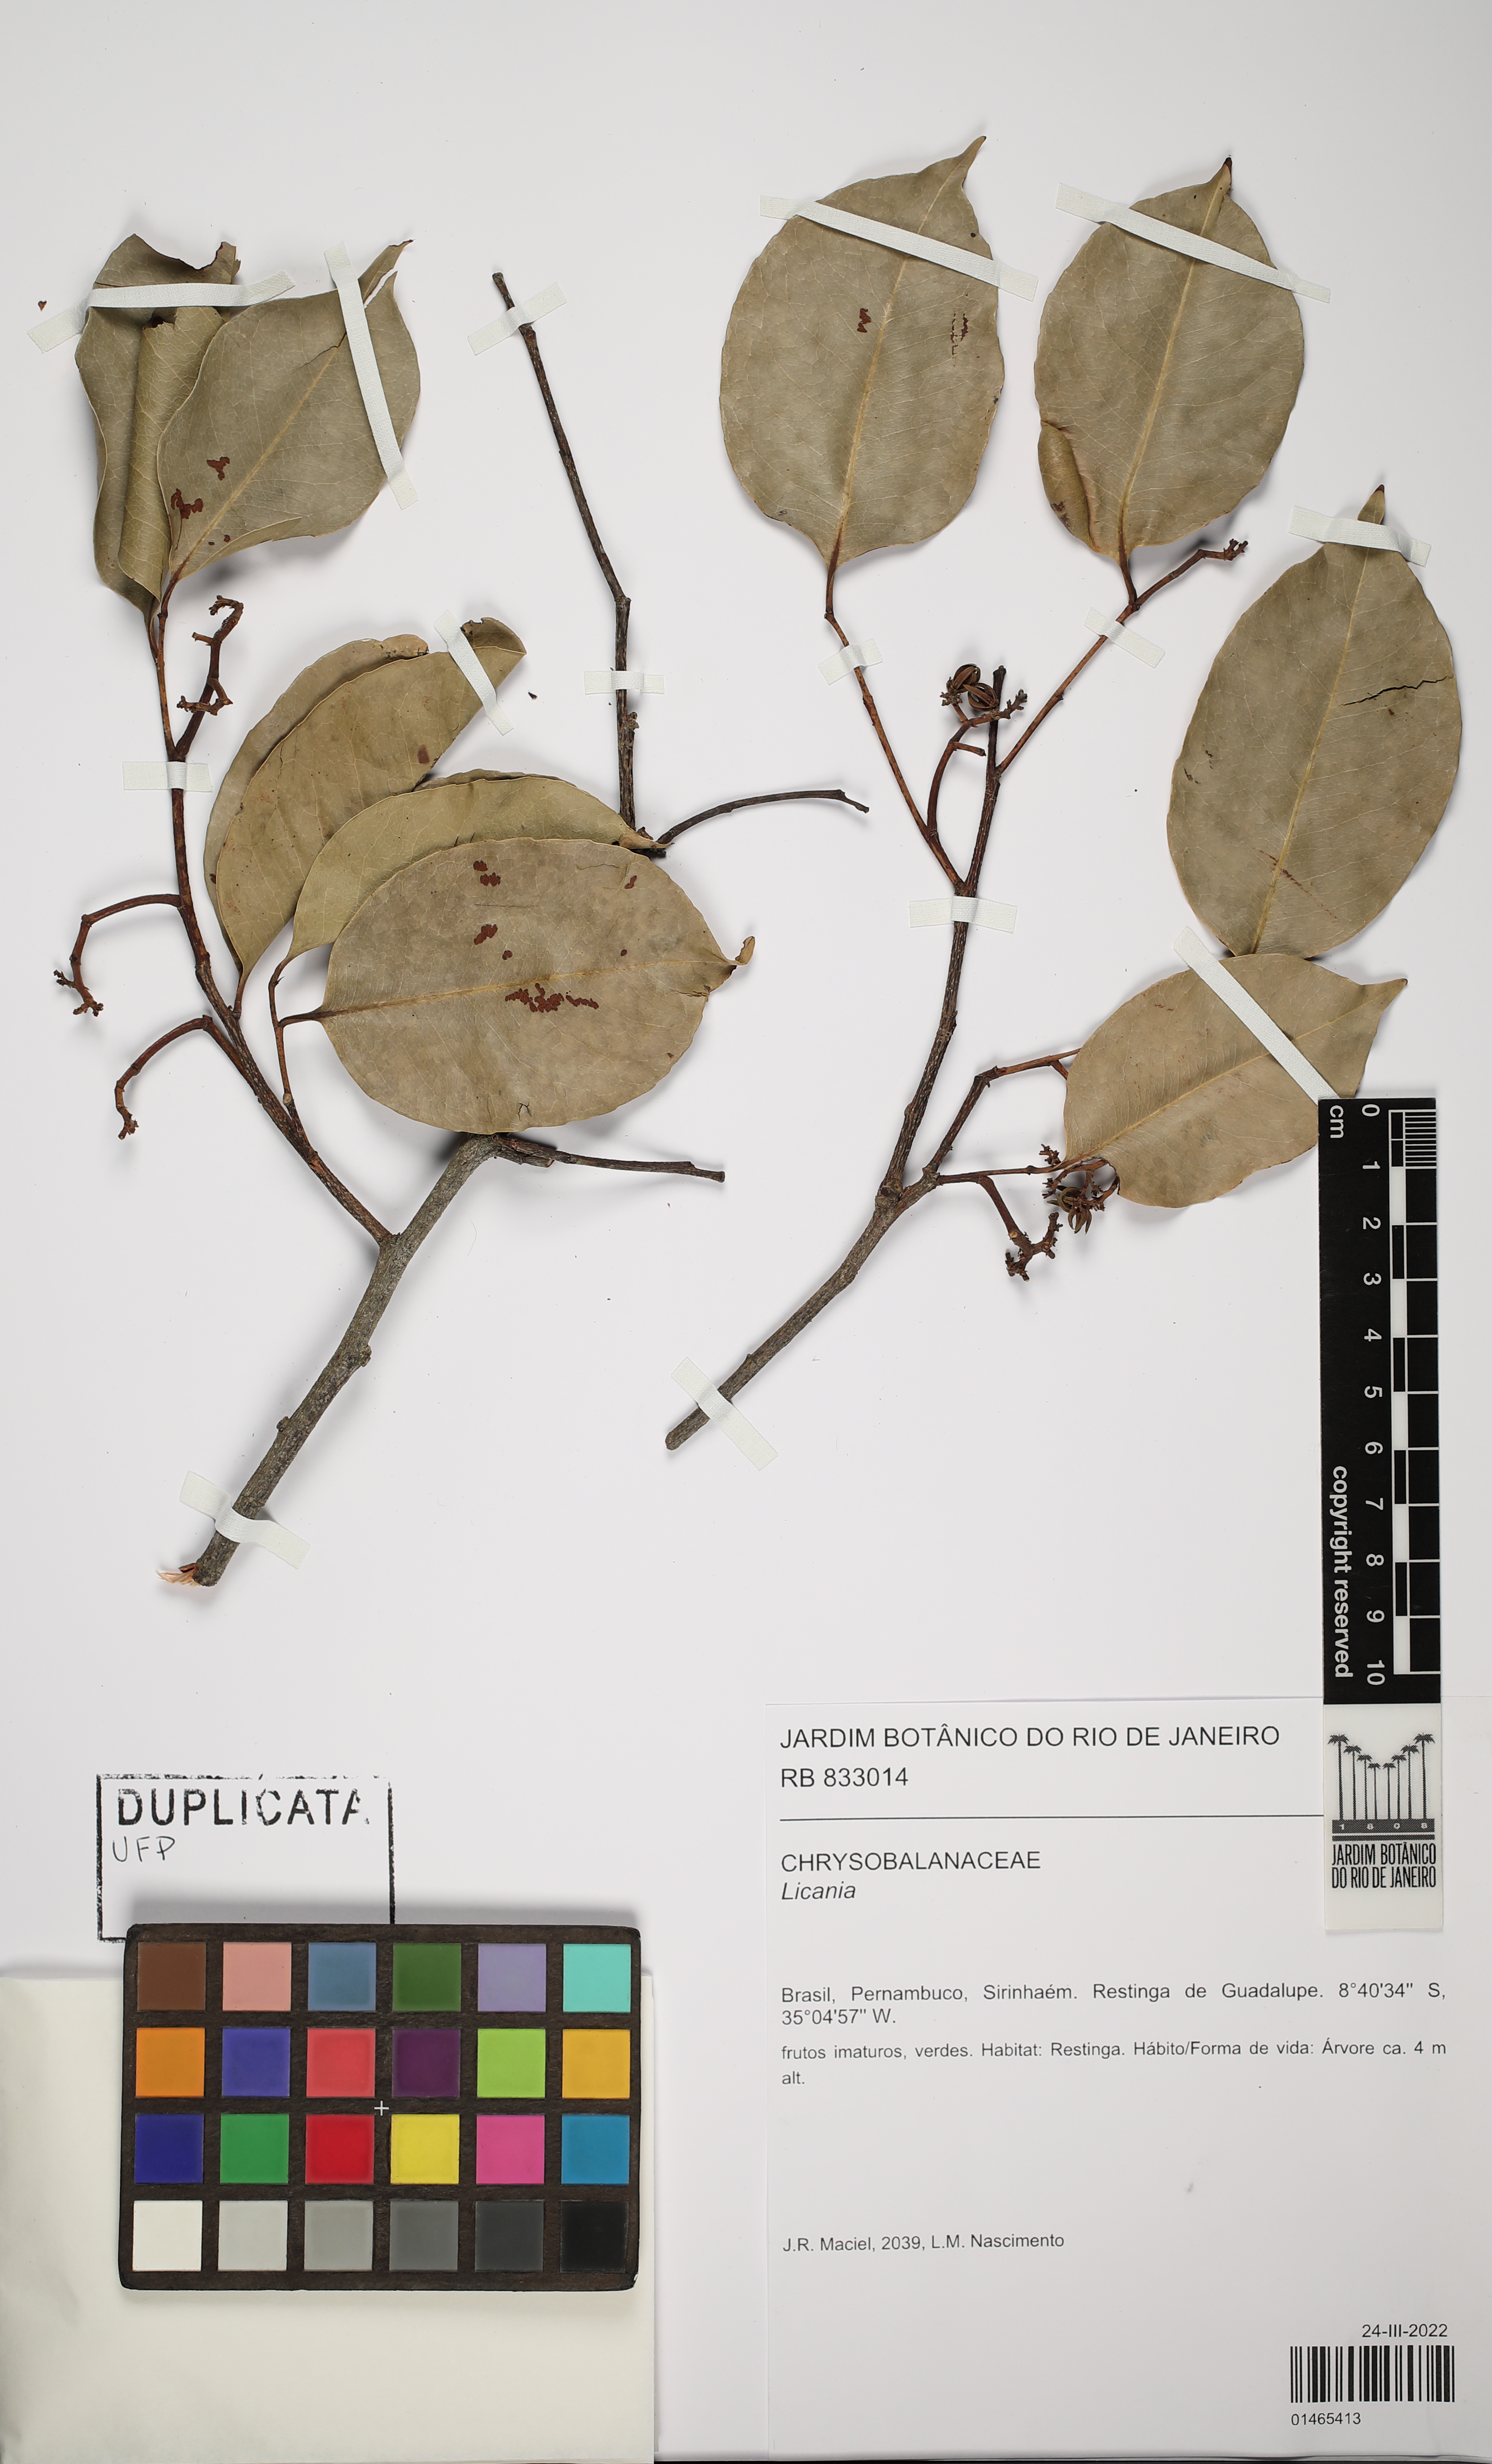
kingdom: Plantae
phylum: Tracheophyta
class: Magnoliopsida
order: Malpighiales
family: Chrysobalanaceae
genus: Licania
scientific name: Licania
